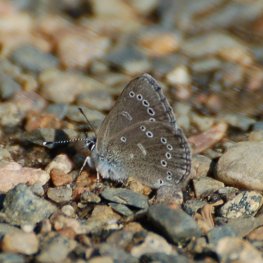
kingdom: Animalia
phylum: Arthropoda
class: Insecta
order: Lepidoptera
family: Lycaenidae
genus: Glaucopsyche
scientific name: Glaucopsyche lygdamus
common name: Silvery Blue
